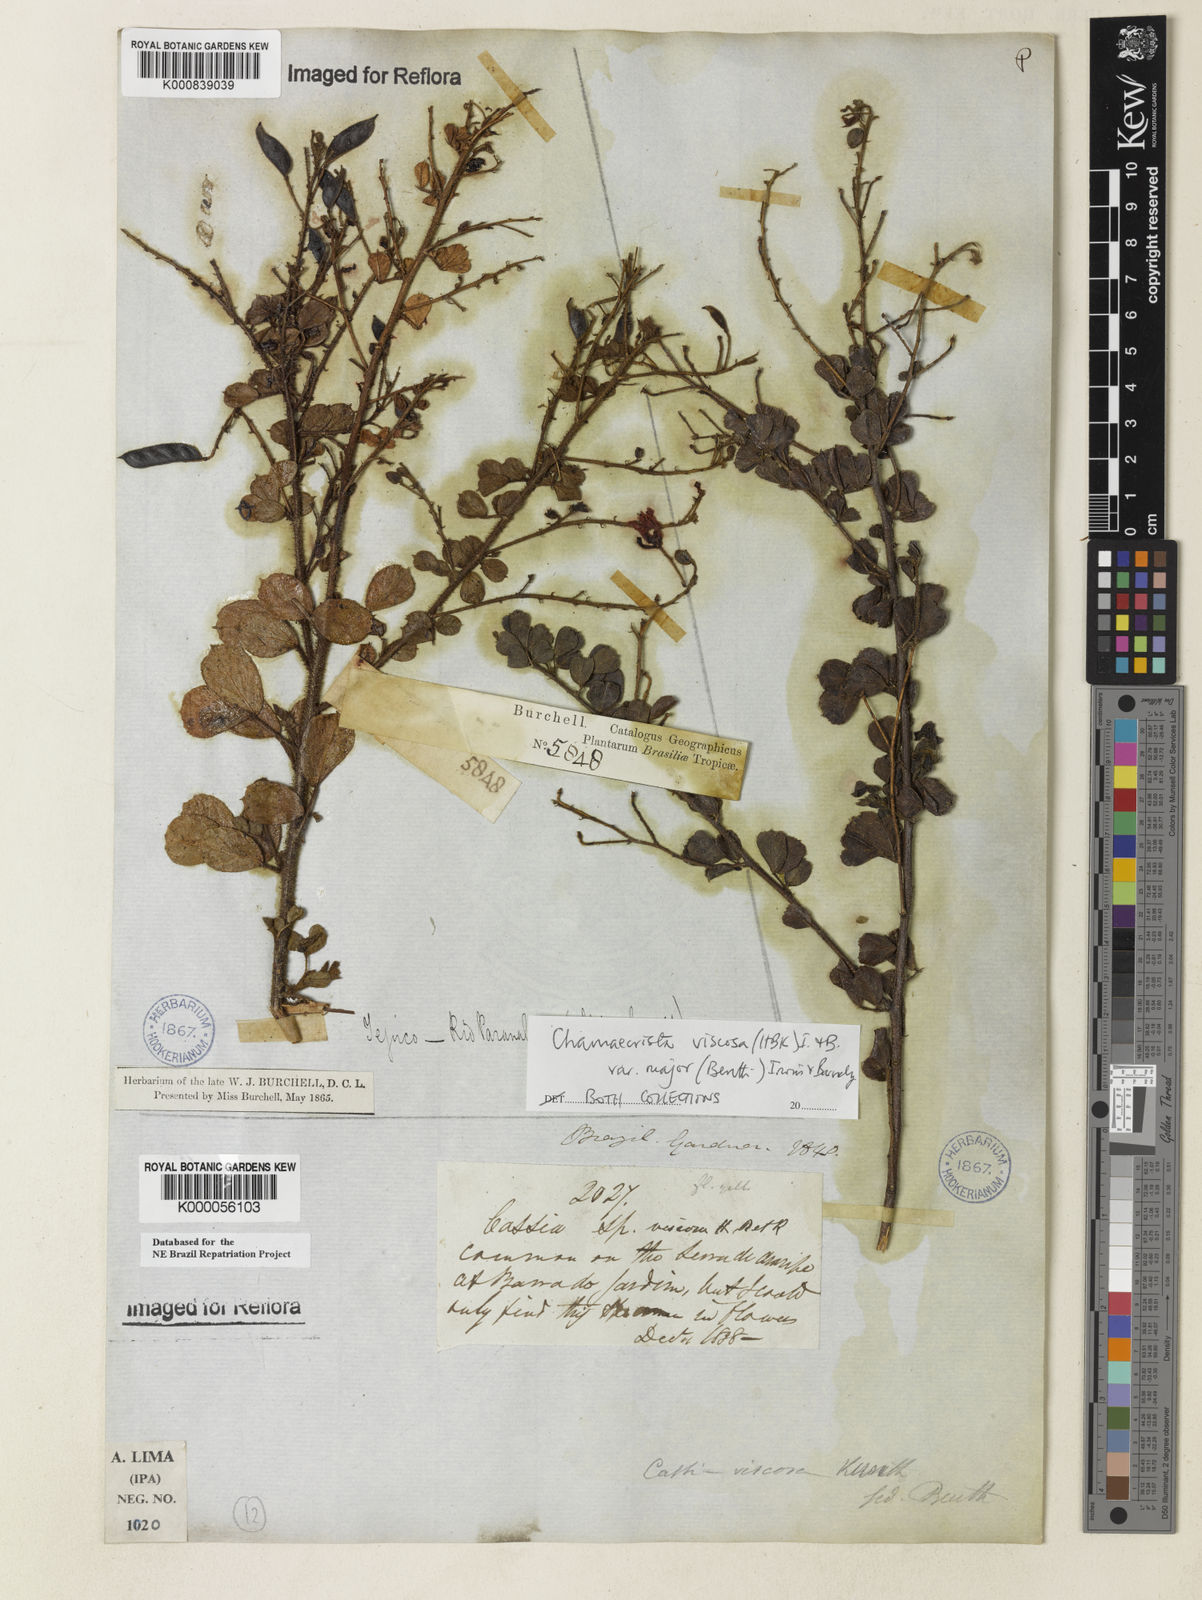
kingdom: Plantae
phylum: Tracheophyta
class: Magnoliopsida
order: Fabales
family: Fabaceae
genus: Chamaecrista
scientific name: Chamaecrista viscosa
